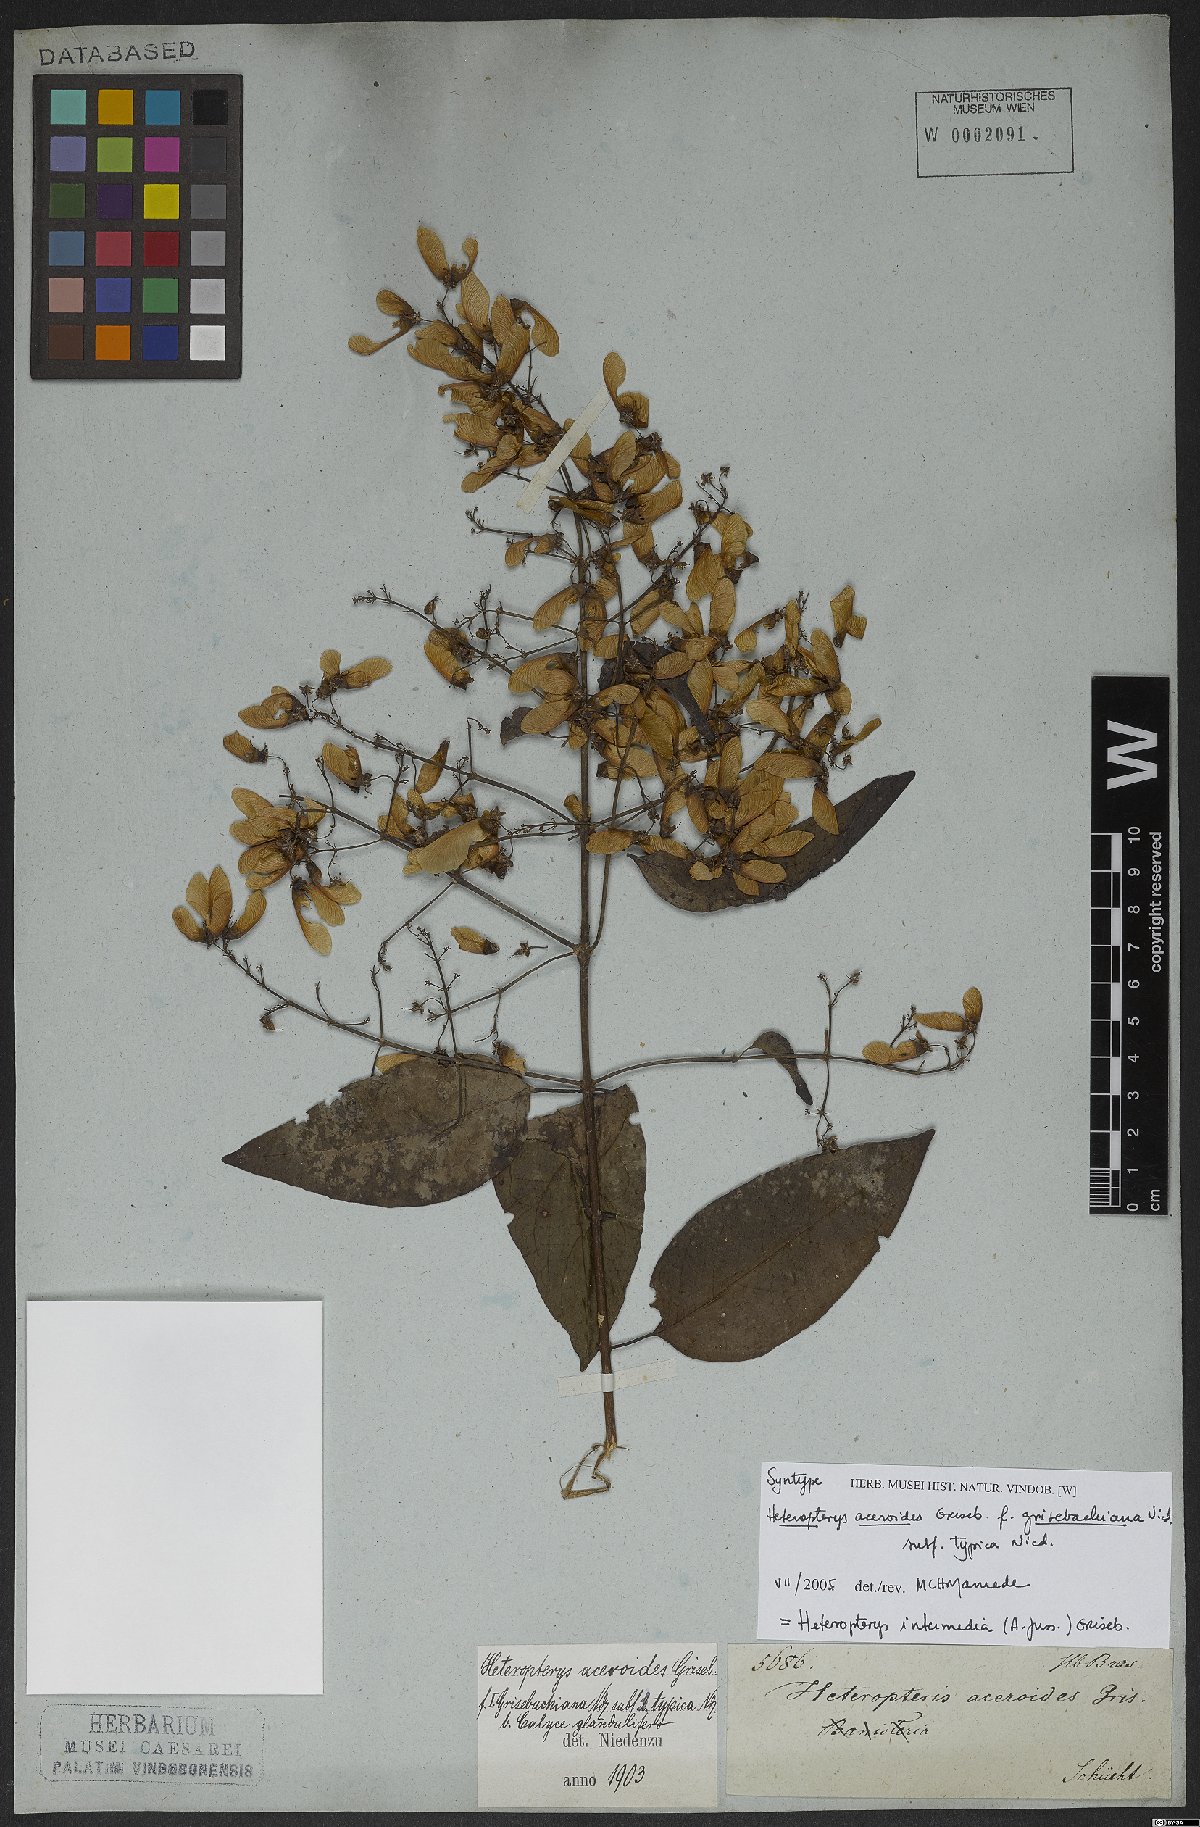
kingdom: Plantae
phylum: Tracheophyta
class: Magnoliopsida
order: Malpighiales
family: Malpighiaceae
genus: Heteropterys
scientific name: Heteropterys intermedia
